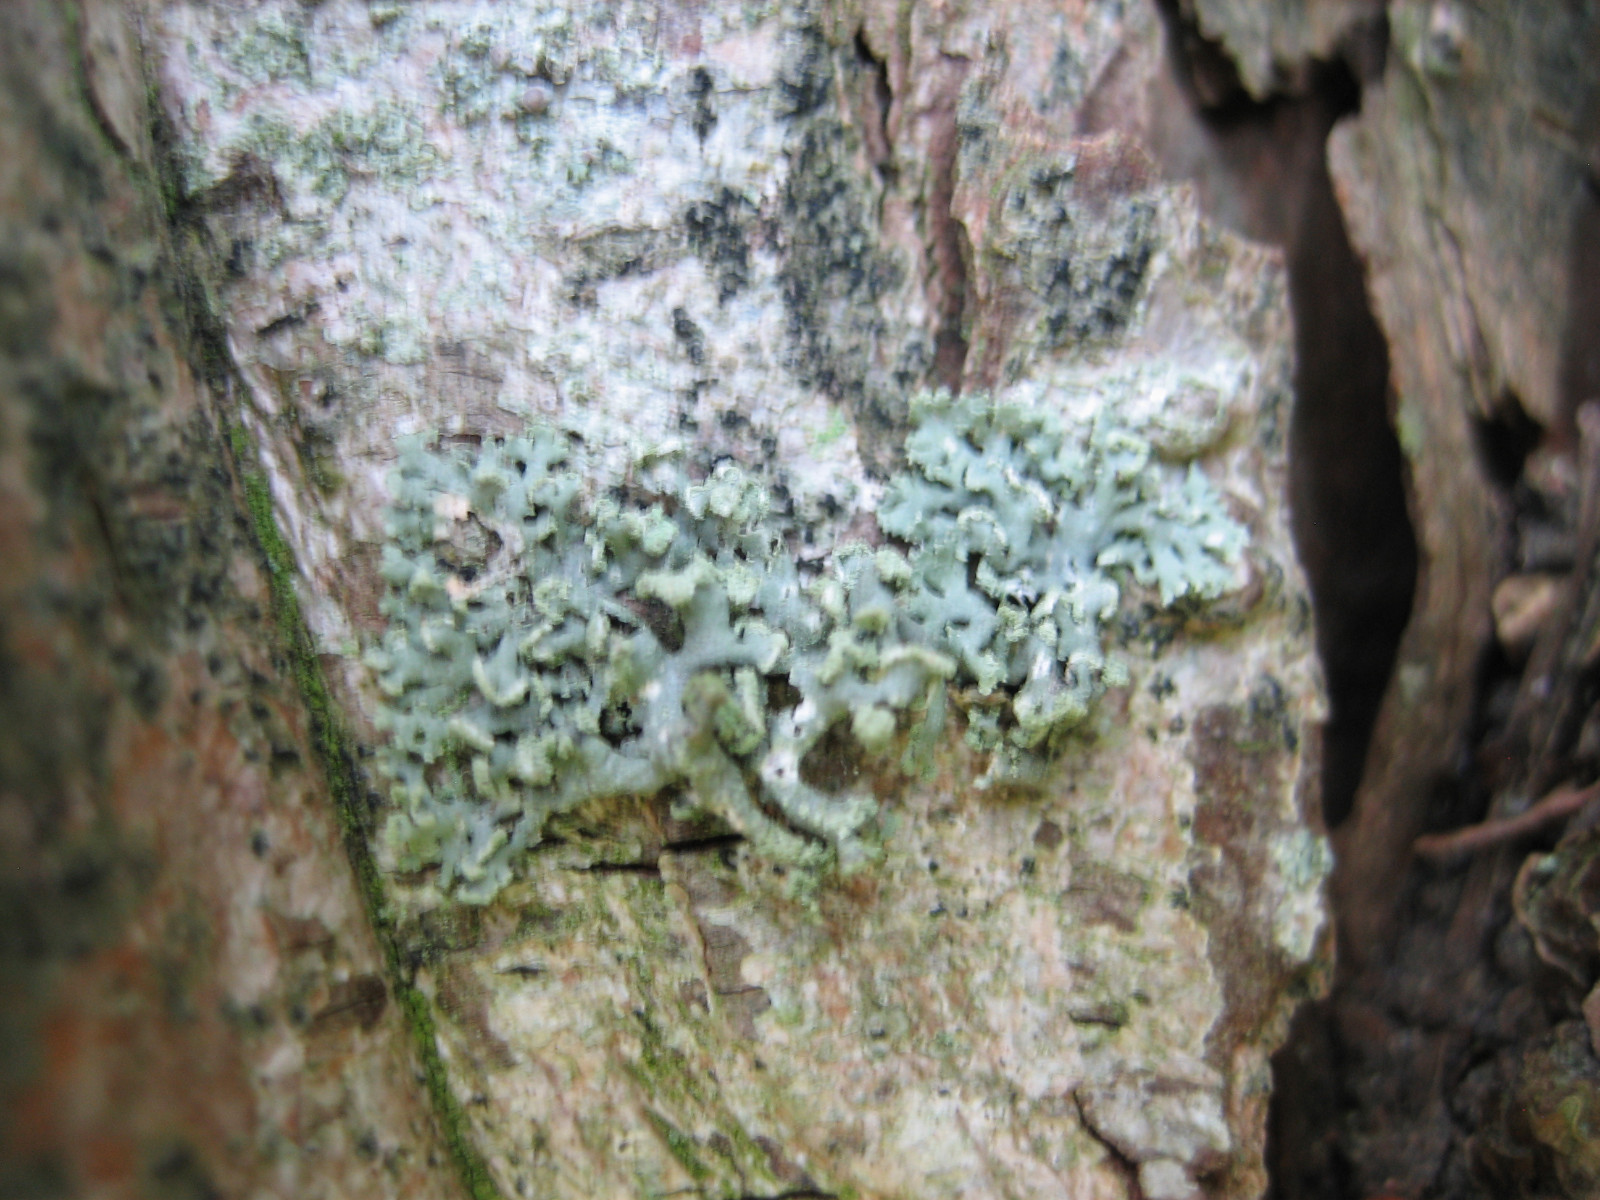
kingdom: Fungi
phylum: Ascomycota
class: Lecanoromycetes
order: Caliciales
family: Physciaceae
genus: Physcia
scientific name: Physcia tenella
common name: spæd rosetlav
